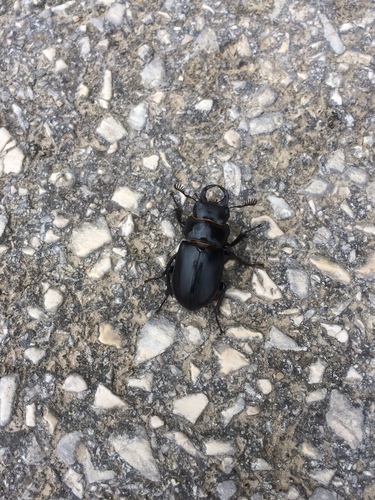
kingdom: Animalia
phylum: Arthropoda
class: Insecta
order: Coleoptera
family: Lucanidae
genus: Lucanus
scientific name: Lucanus barbarossa
